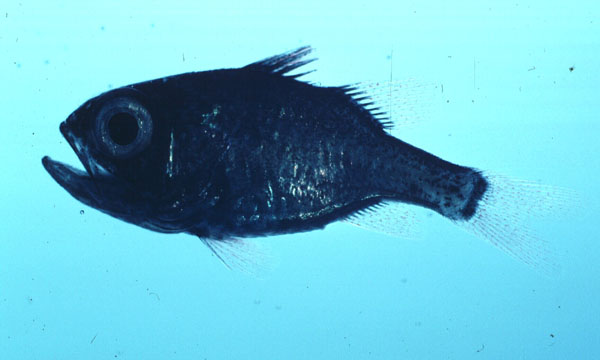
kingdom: Animalia
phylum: Chordata
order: Perciformes
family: Apogonidae
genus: Siphamia
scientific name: Siphamia mossambica
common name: Sea urchin cardinal
